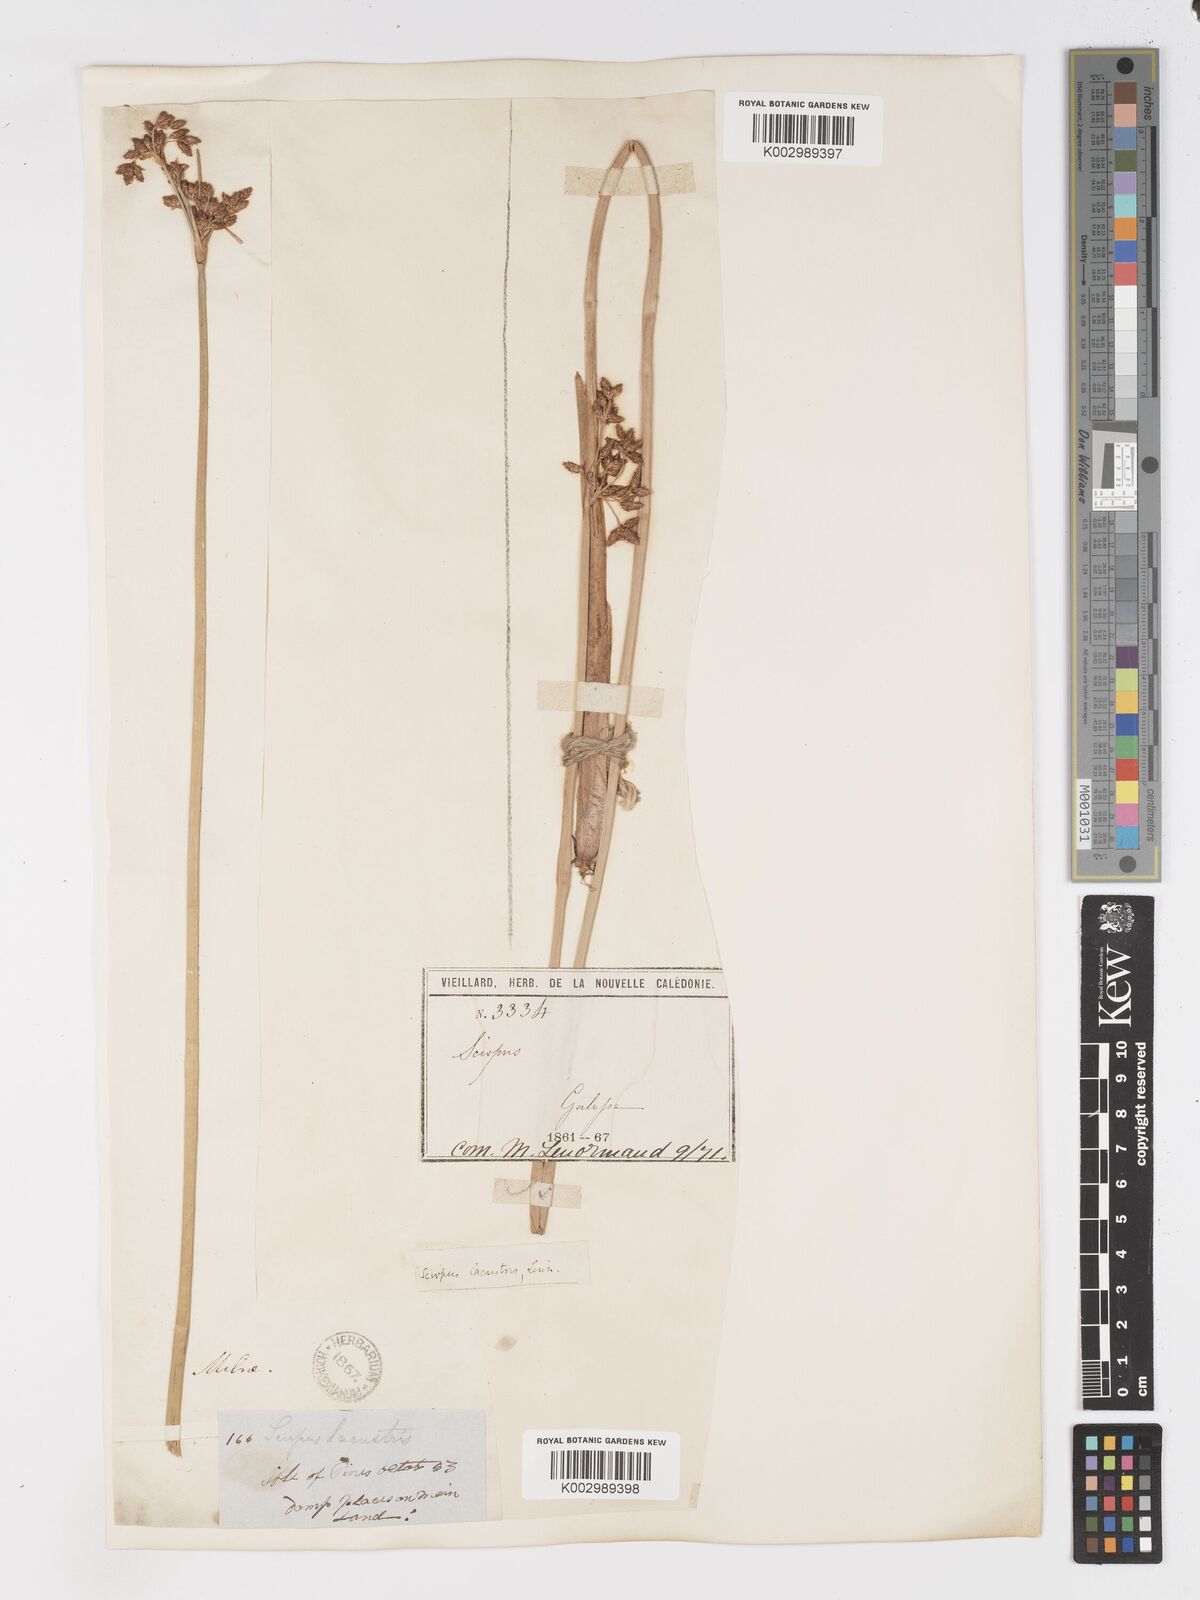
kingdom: Plantae
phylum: Tracheophyta
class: Liliopsida
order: Poales
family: Cyperaceae
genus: Schoenoplectus
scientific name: Schoenoplectus californicus
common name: California bulrush
